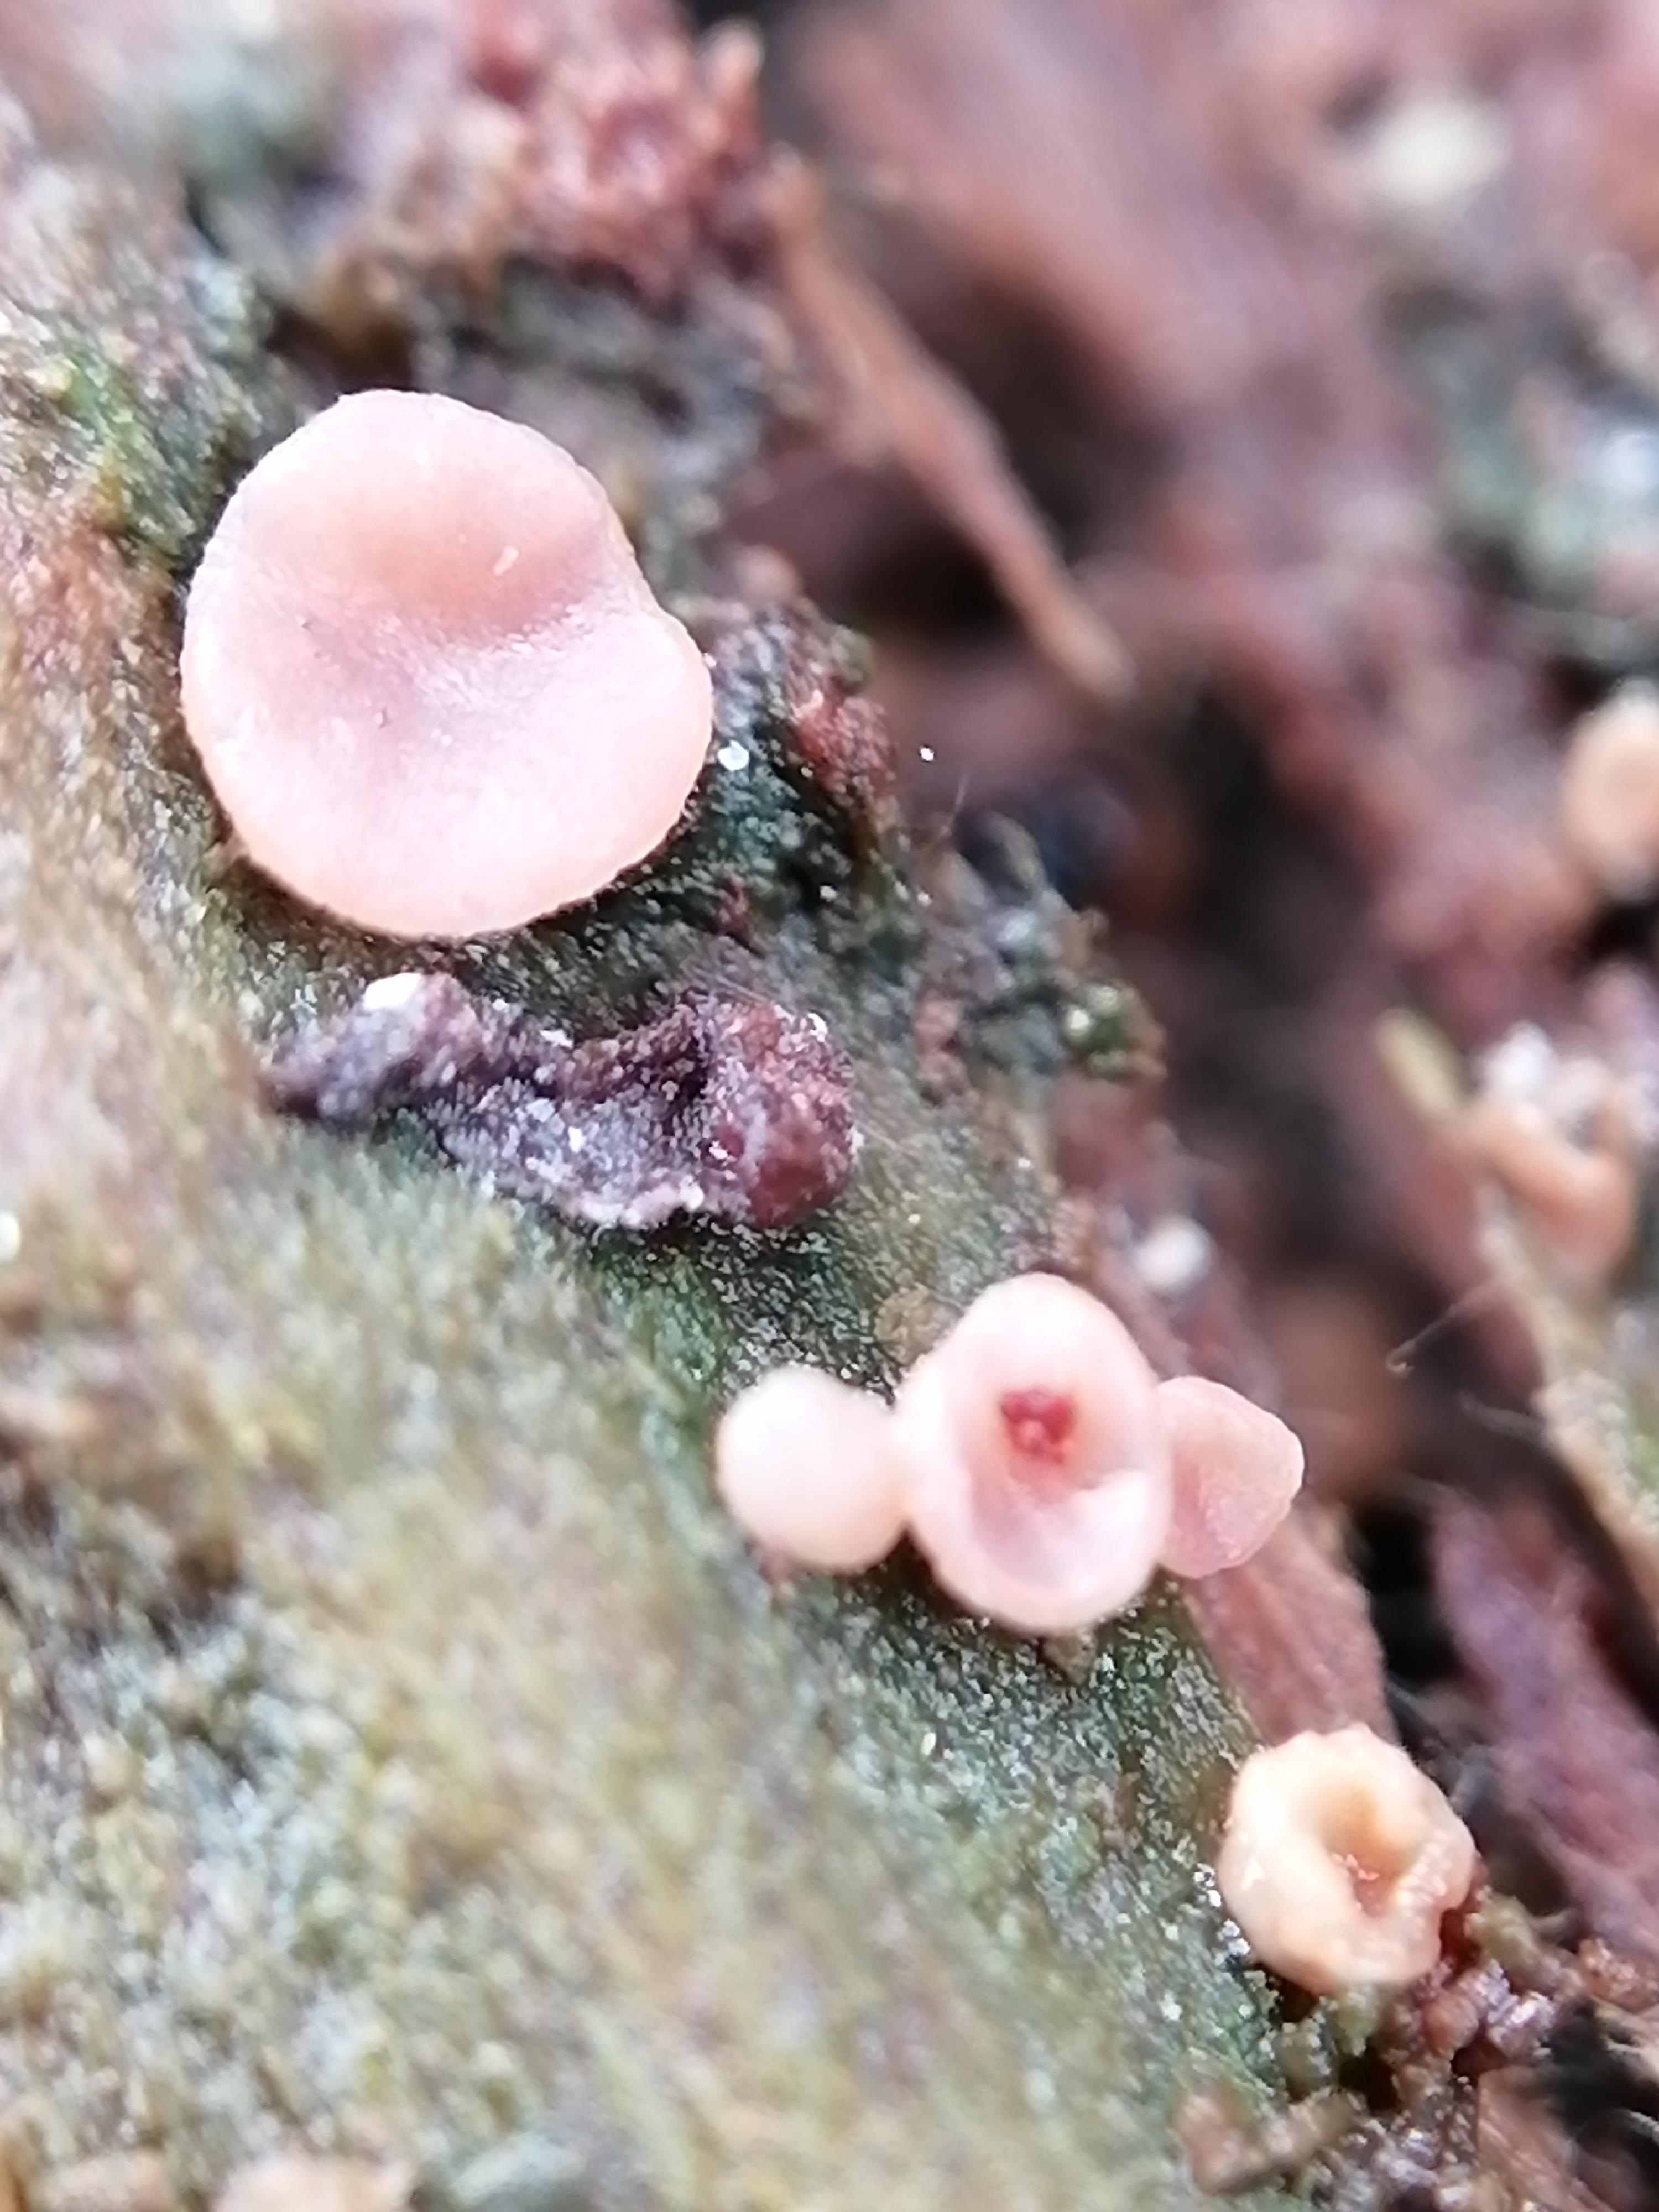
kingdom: Fungi
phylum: Ascomycota
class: Leotiomycetes
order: Helotiales
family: Gelatinodiscaceae
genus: Ascocoryne
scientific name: Ascocoryne
